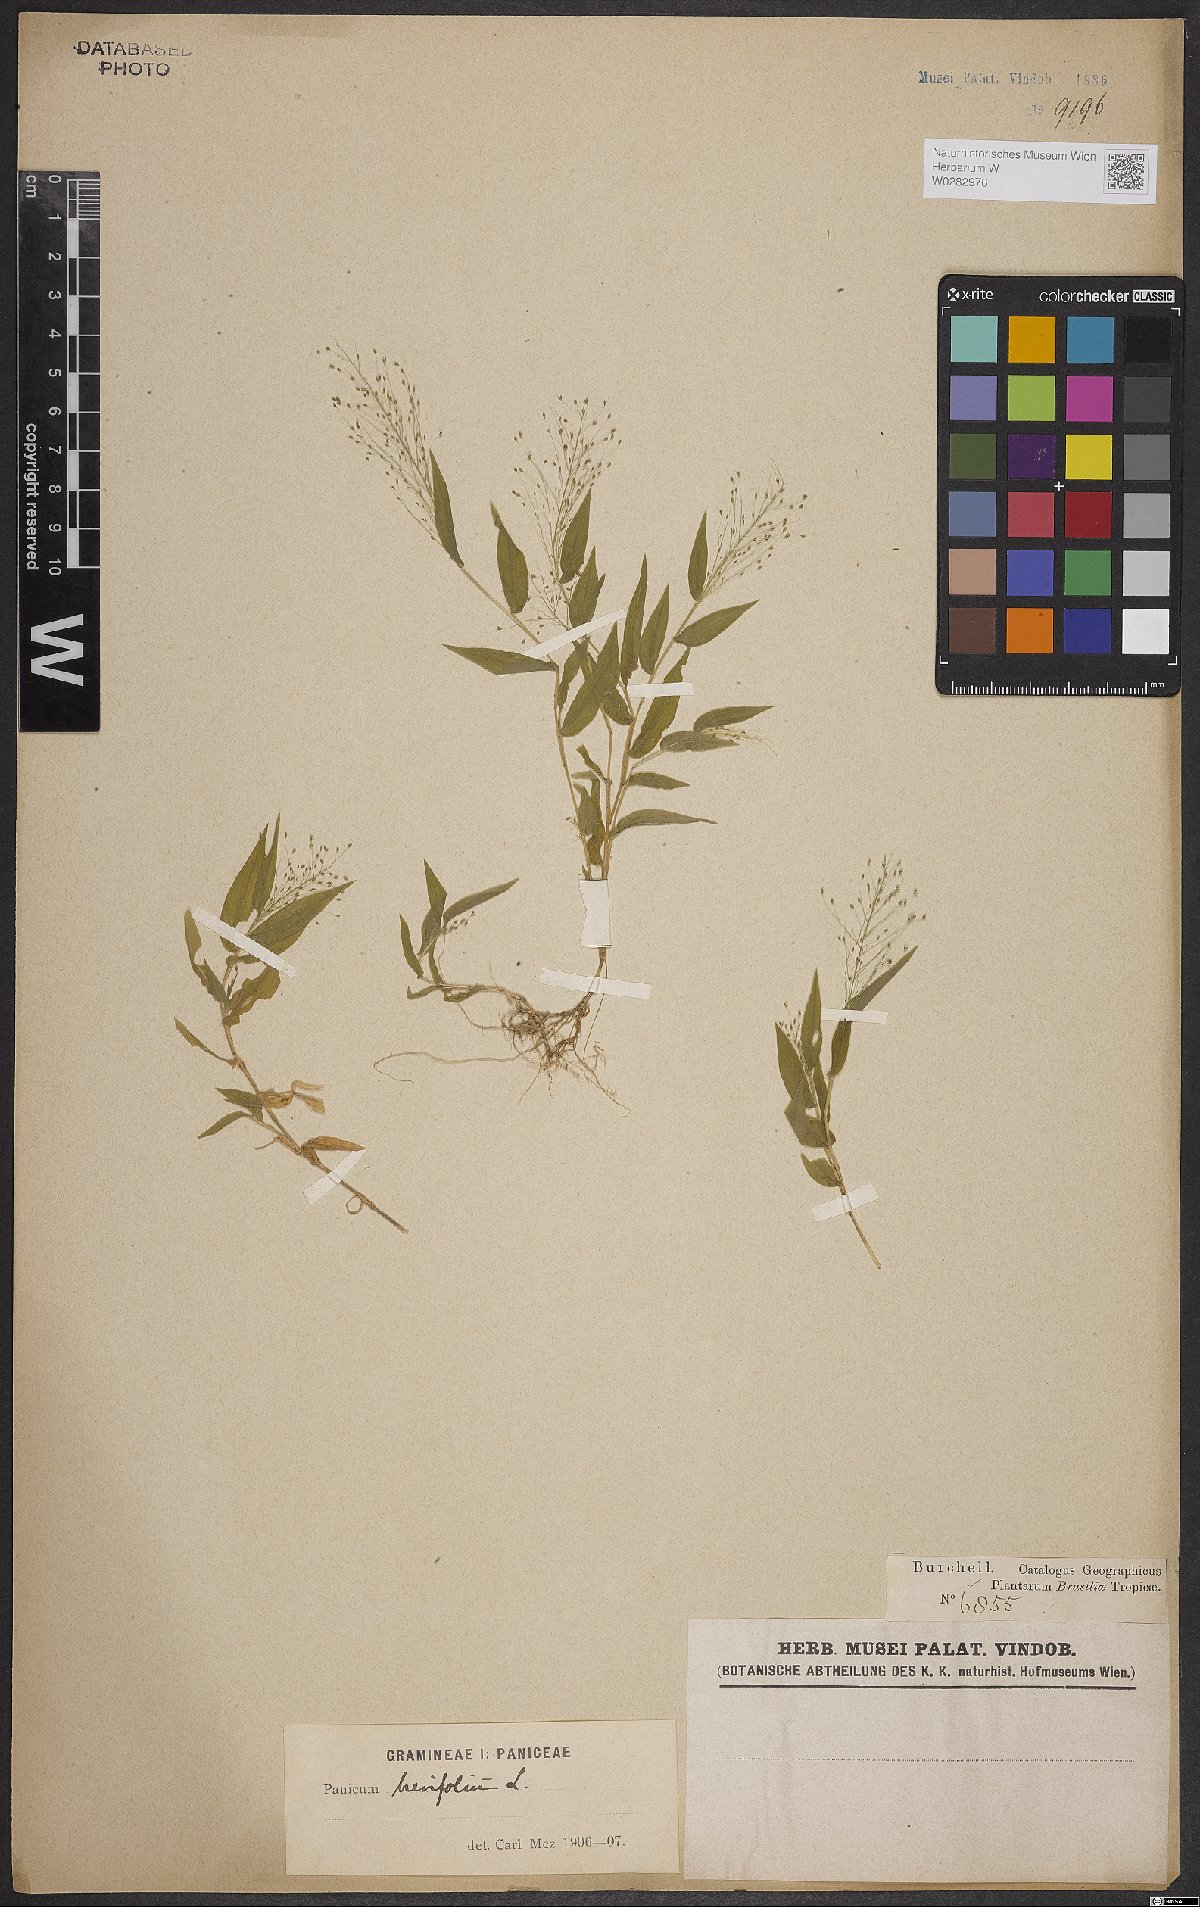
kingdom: Plantae
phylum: Tracheophyta
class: Liliopsida
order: Poales
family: Poaceae
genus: Panicum
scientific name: Panicum brevifolium
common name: Shortleaf panic grass
